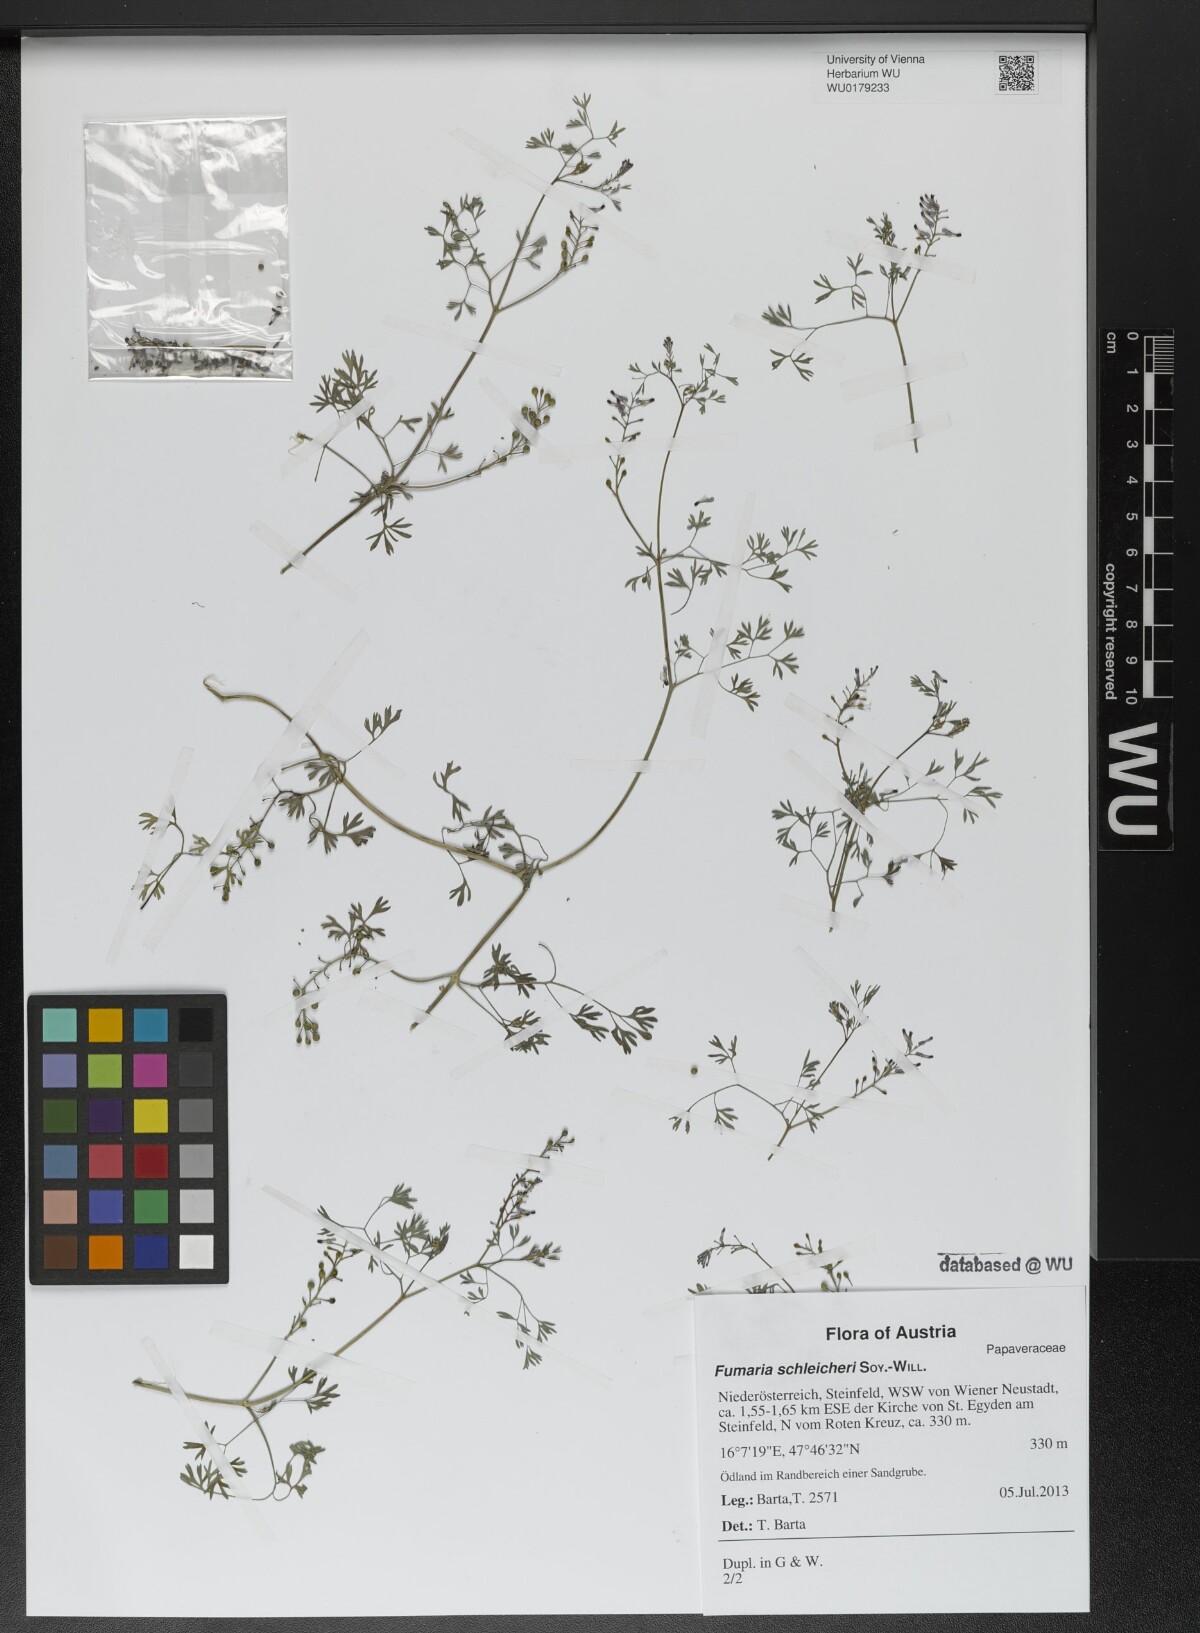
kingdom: Plantae
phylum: Tracheophyta
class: Magnoliopsida
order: Ranunculales
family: Papaveraceae
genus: Fumaria
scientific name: Fumaria schleicheri
